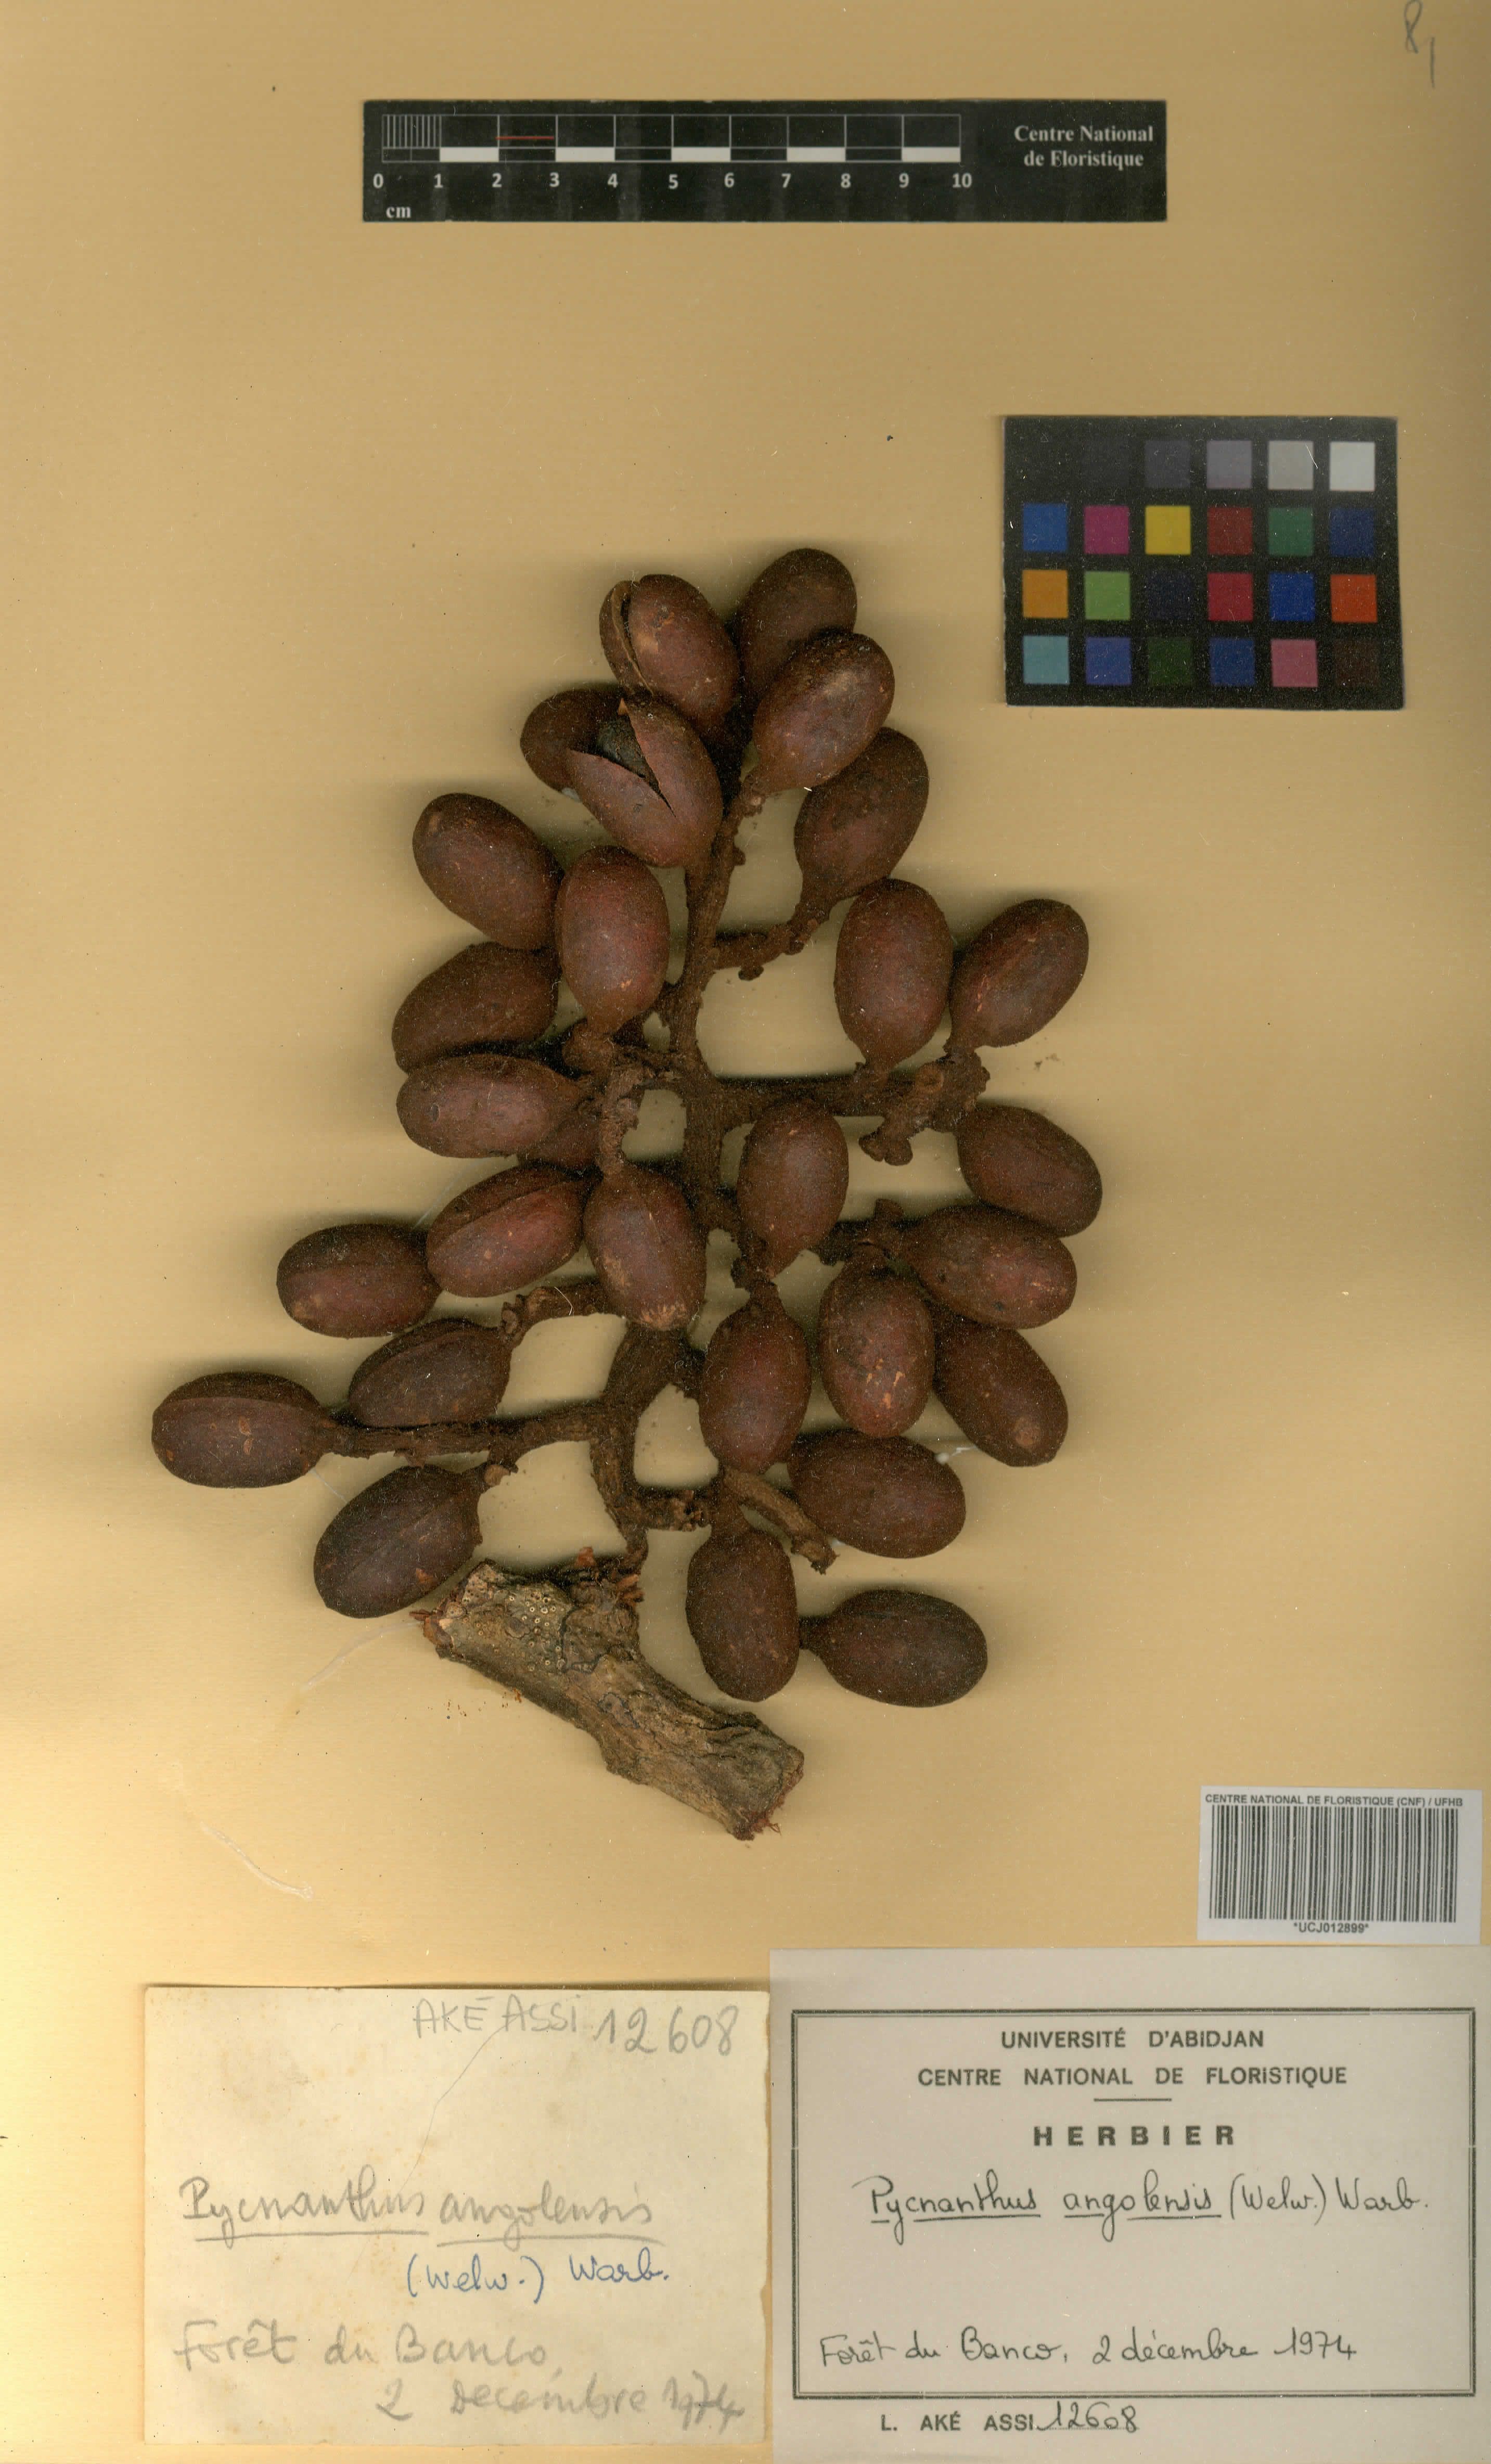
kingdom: Plantae
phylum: Tracheophyta
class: Magnoliopsida
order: Magnoliales
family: Myristicaceae
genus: Pycnanthus
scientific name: Pycnanthus angolensis
